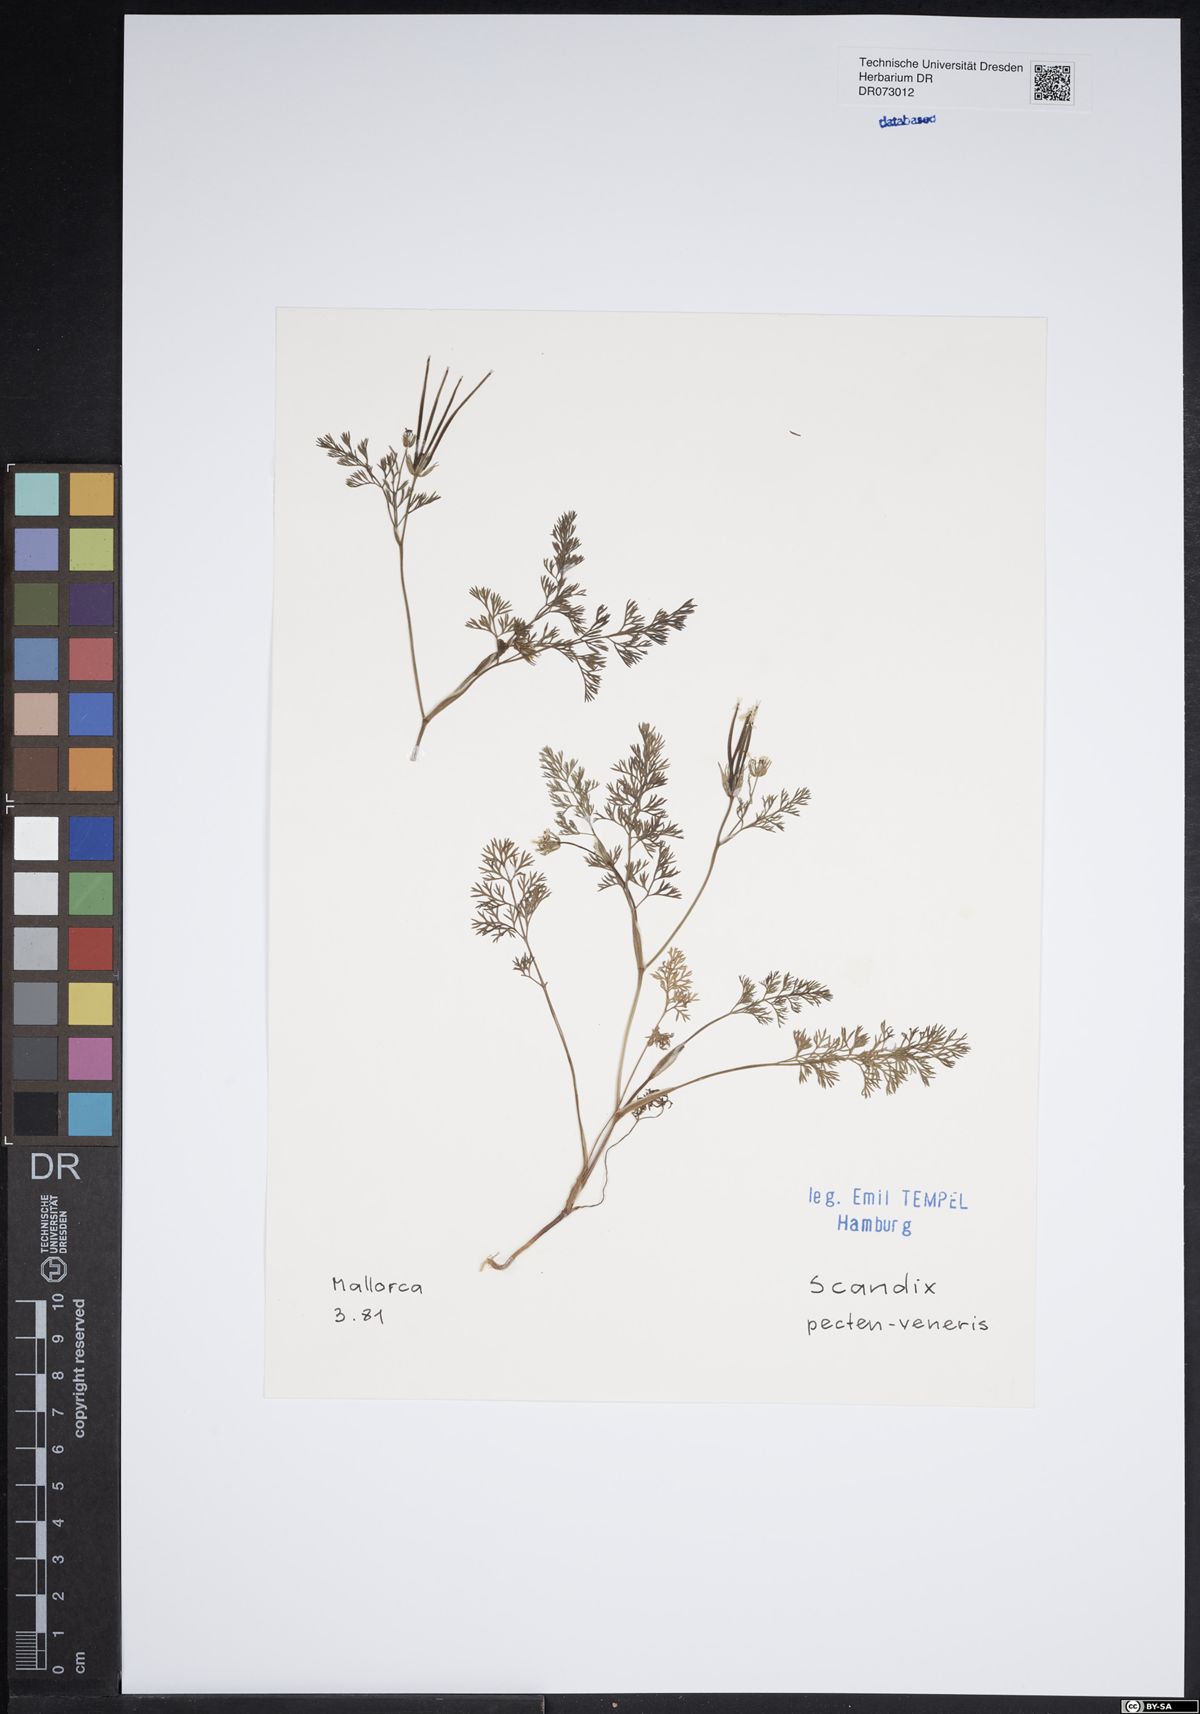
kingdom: Plantae
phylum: Tracheophyta
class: Magnoliopsida
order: Apiales
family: Apiaceae
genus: Scandix
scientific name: Scandix pecten-veneris
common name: Shepherd's-needle
